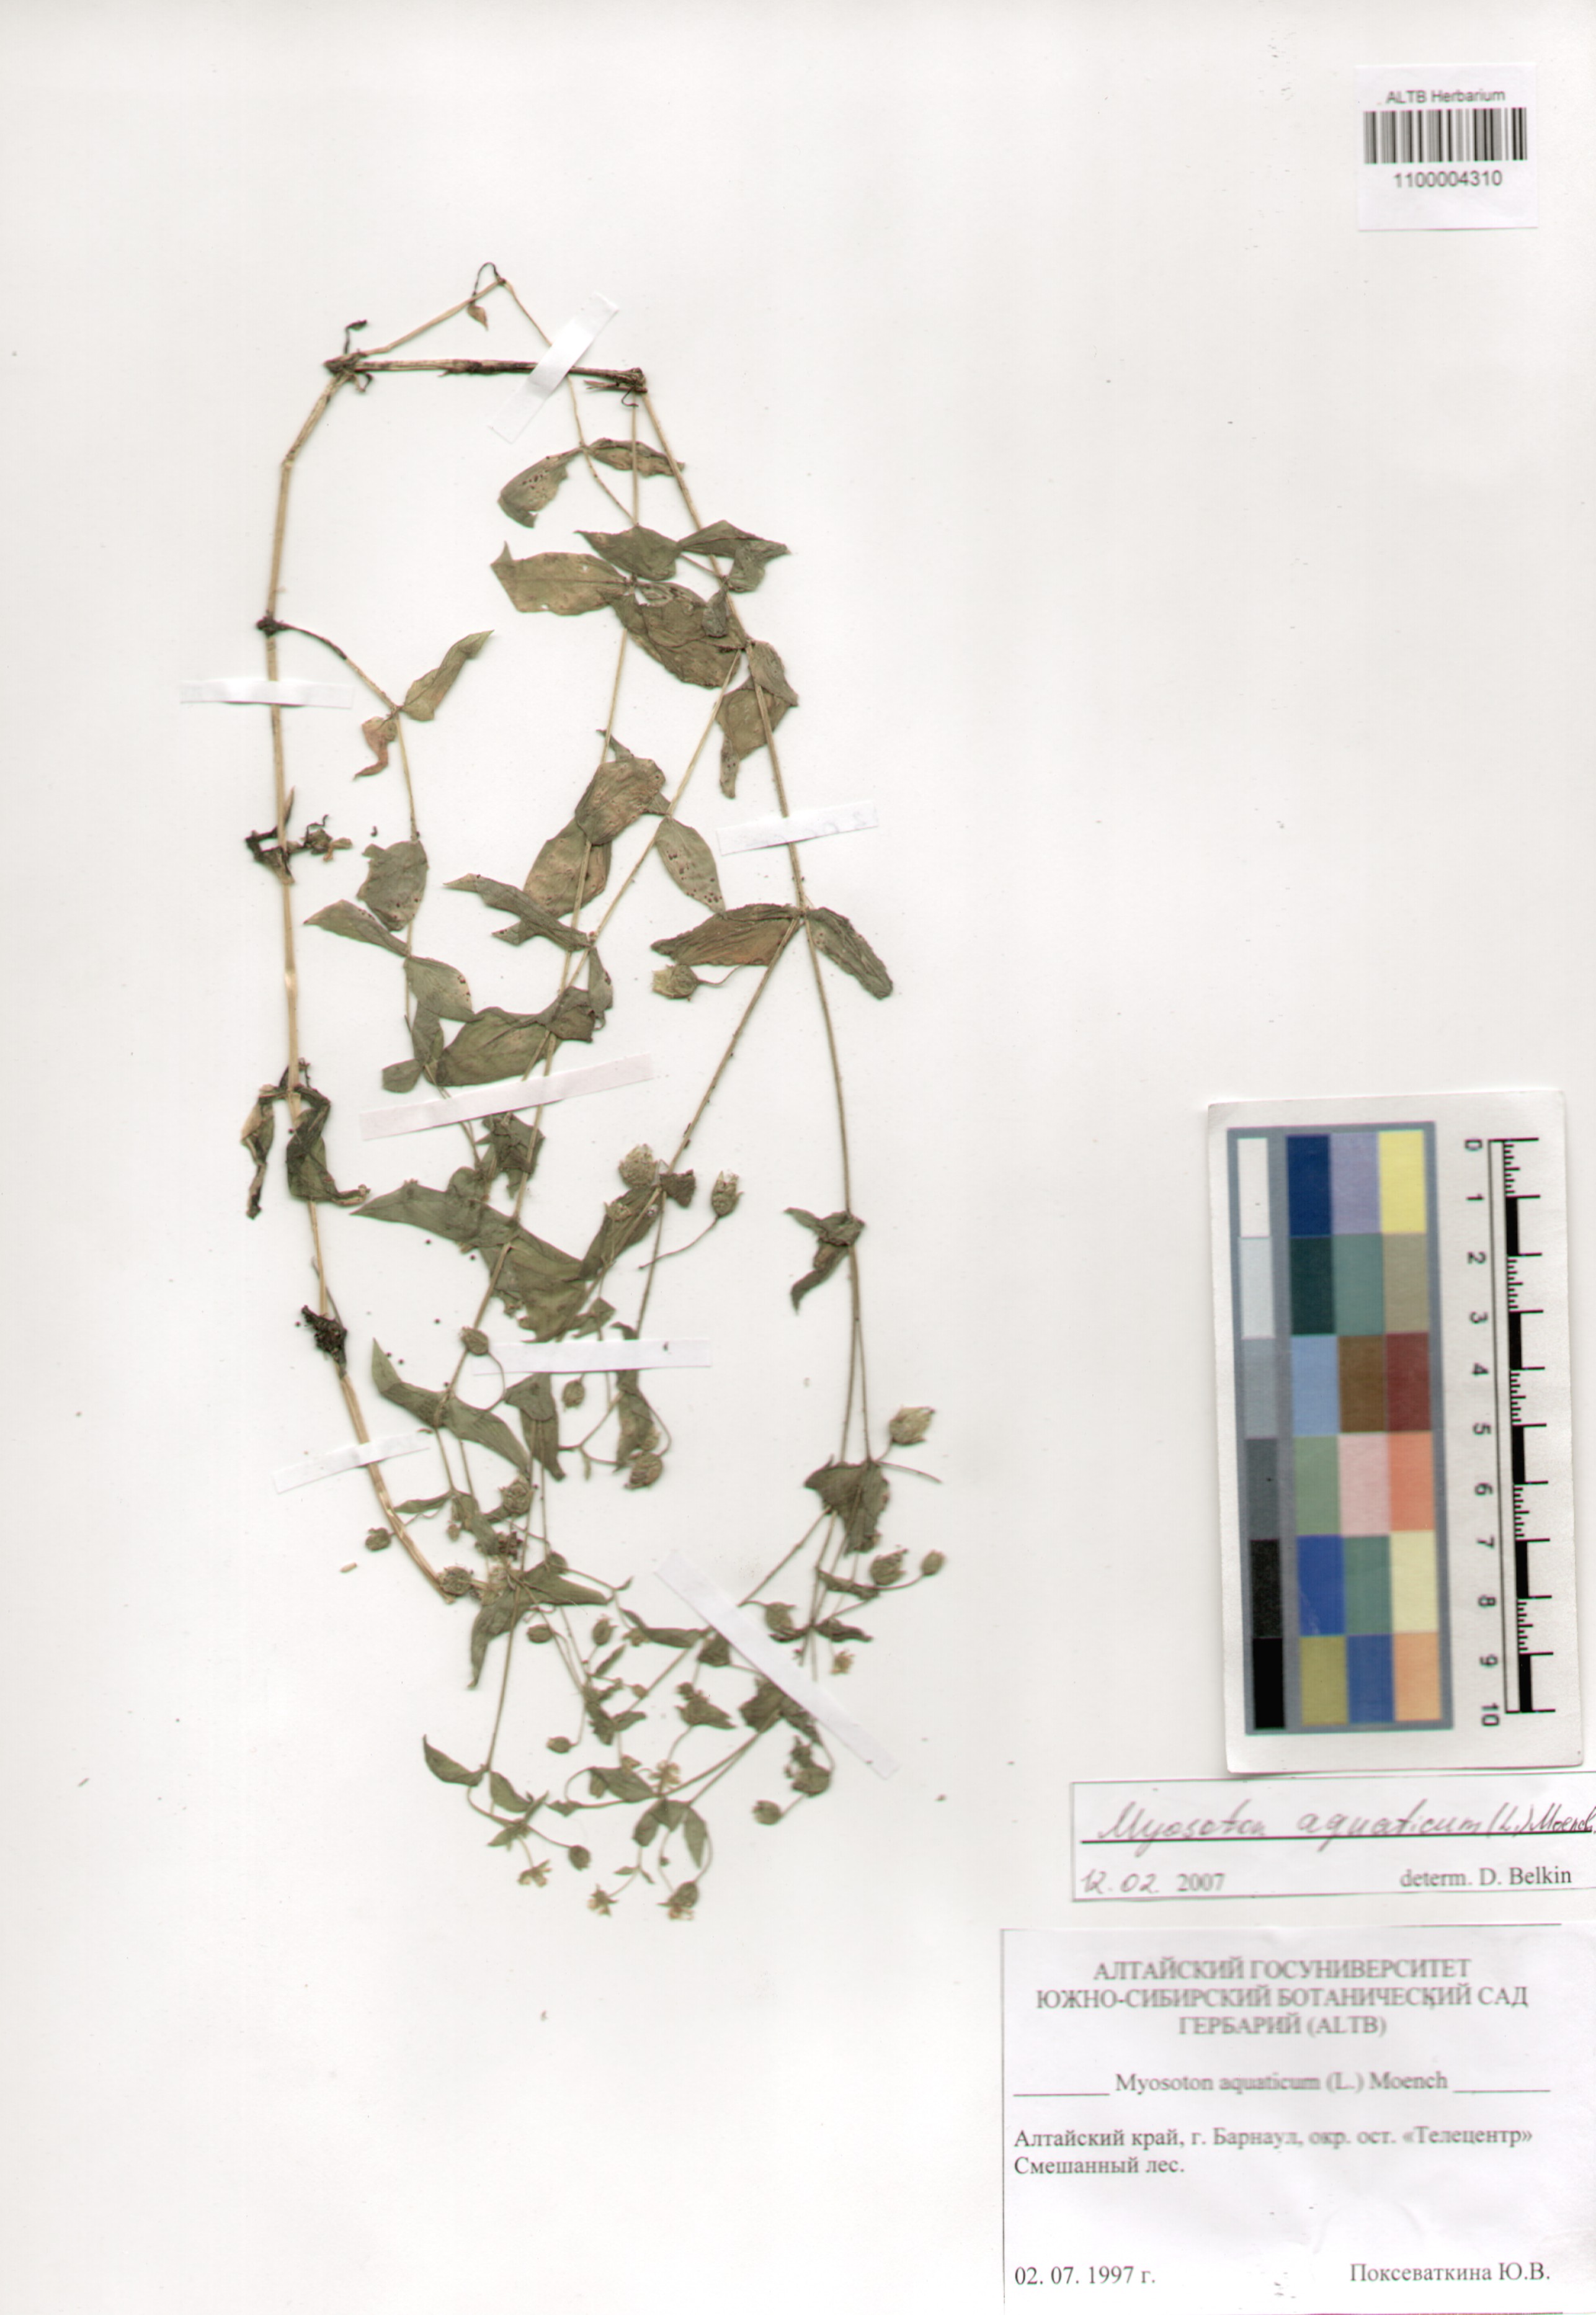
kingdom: Plantae
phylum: Tracheophyta
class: Magnoliopsida
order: Caryophyllales
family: Caryophyllaceae
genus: Stellaria
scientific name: Stellaria aquatica
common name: Water chickweed
